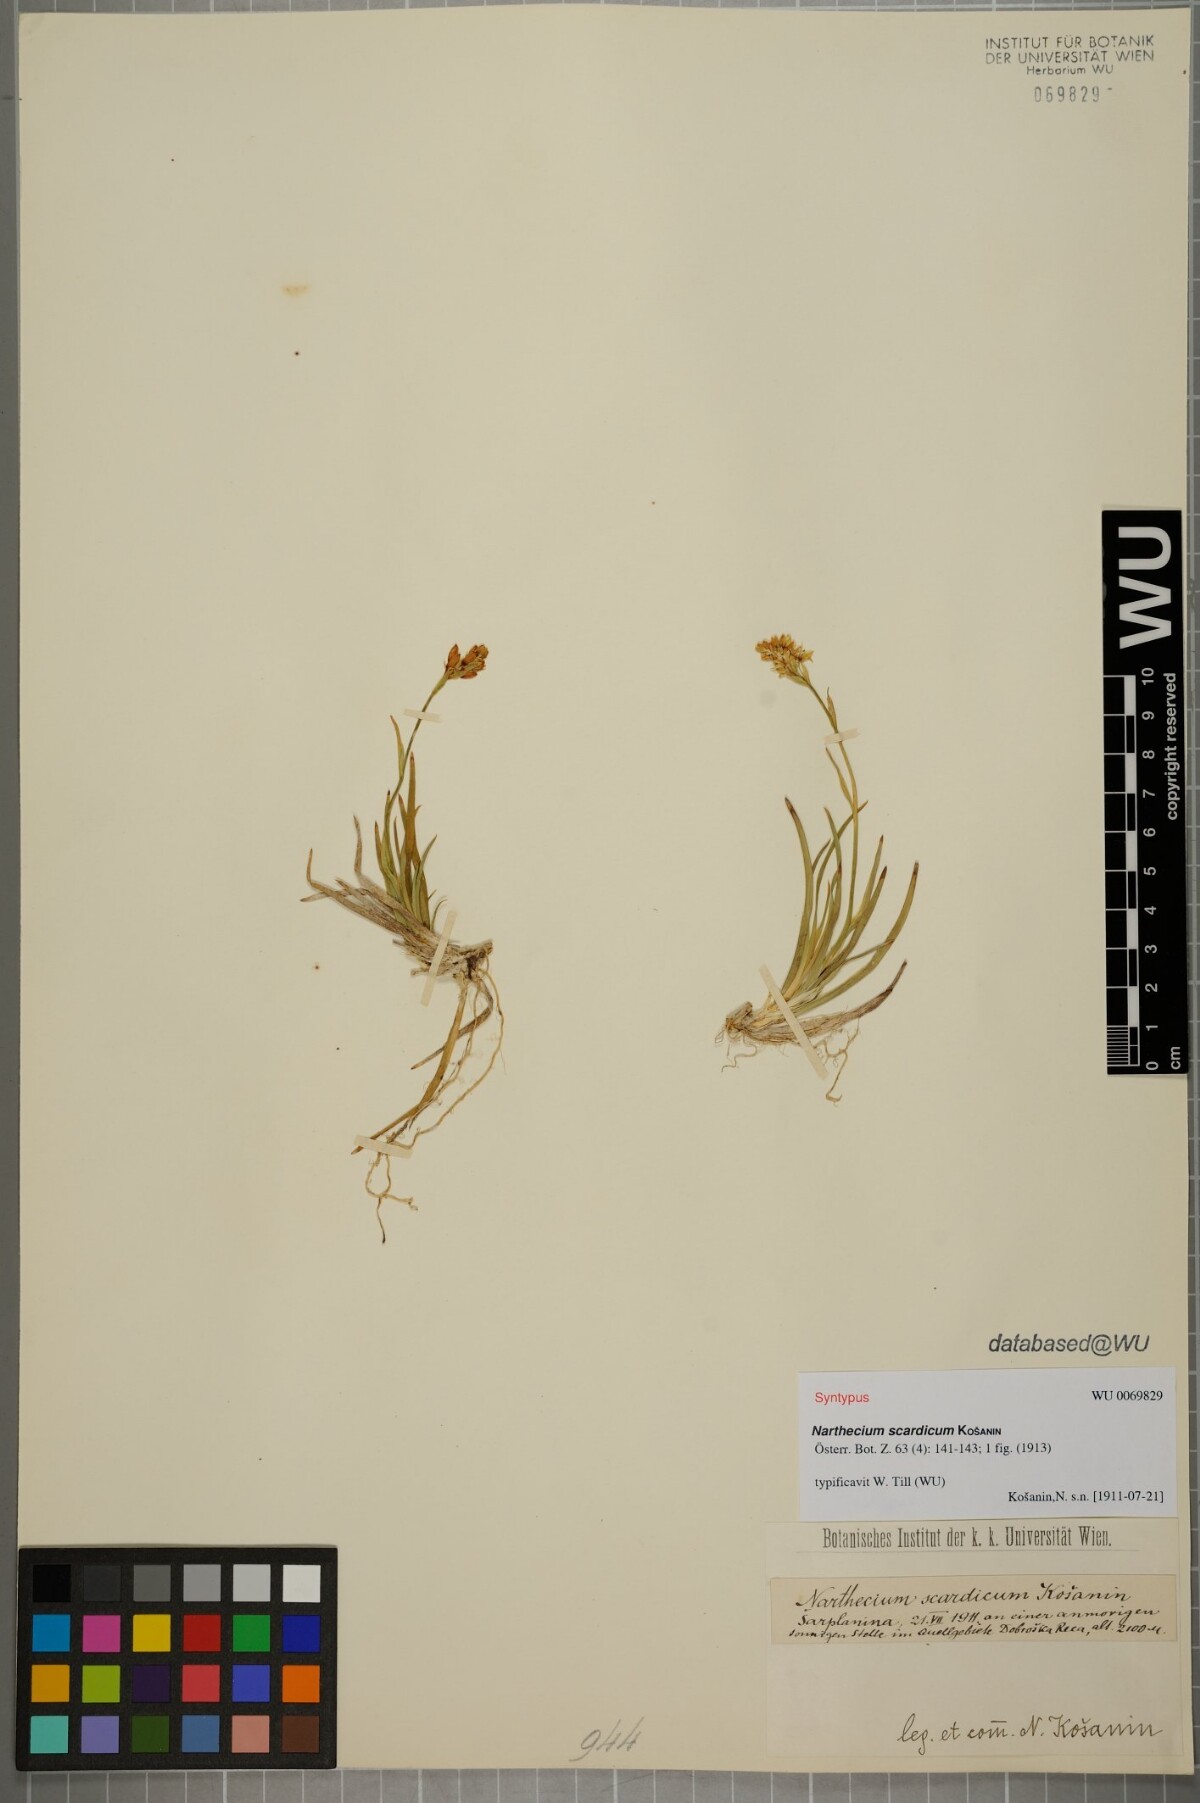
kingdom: Plantae
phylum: Tracheophyta
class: Liliopsida
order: Dioscoreales
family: Nartheciaceae
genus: Narthecium
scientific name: Narthecium scardicum
